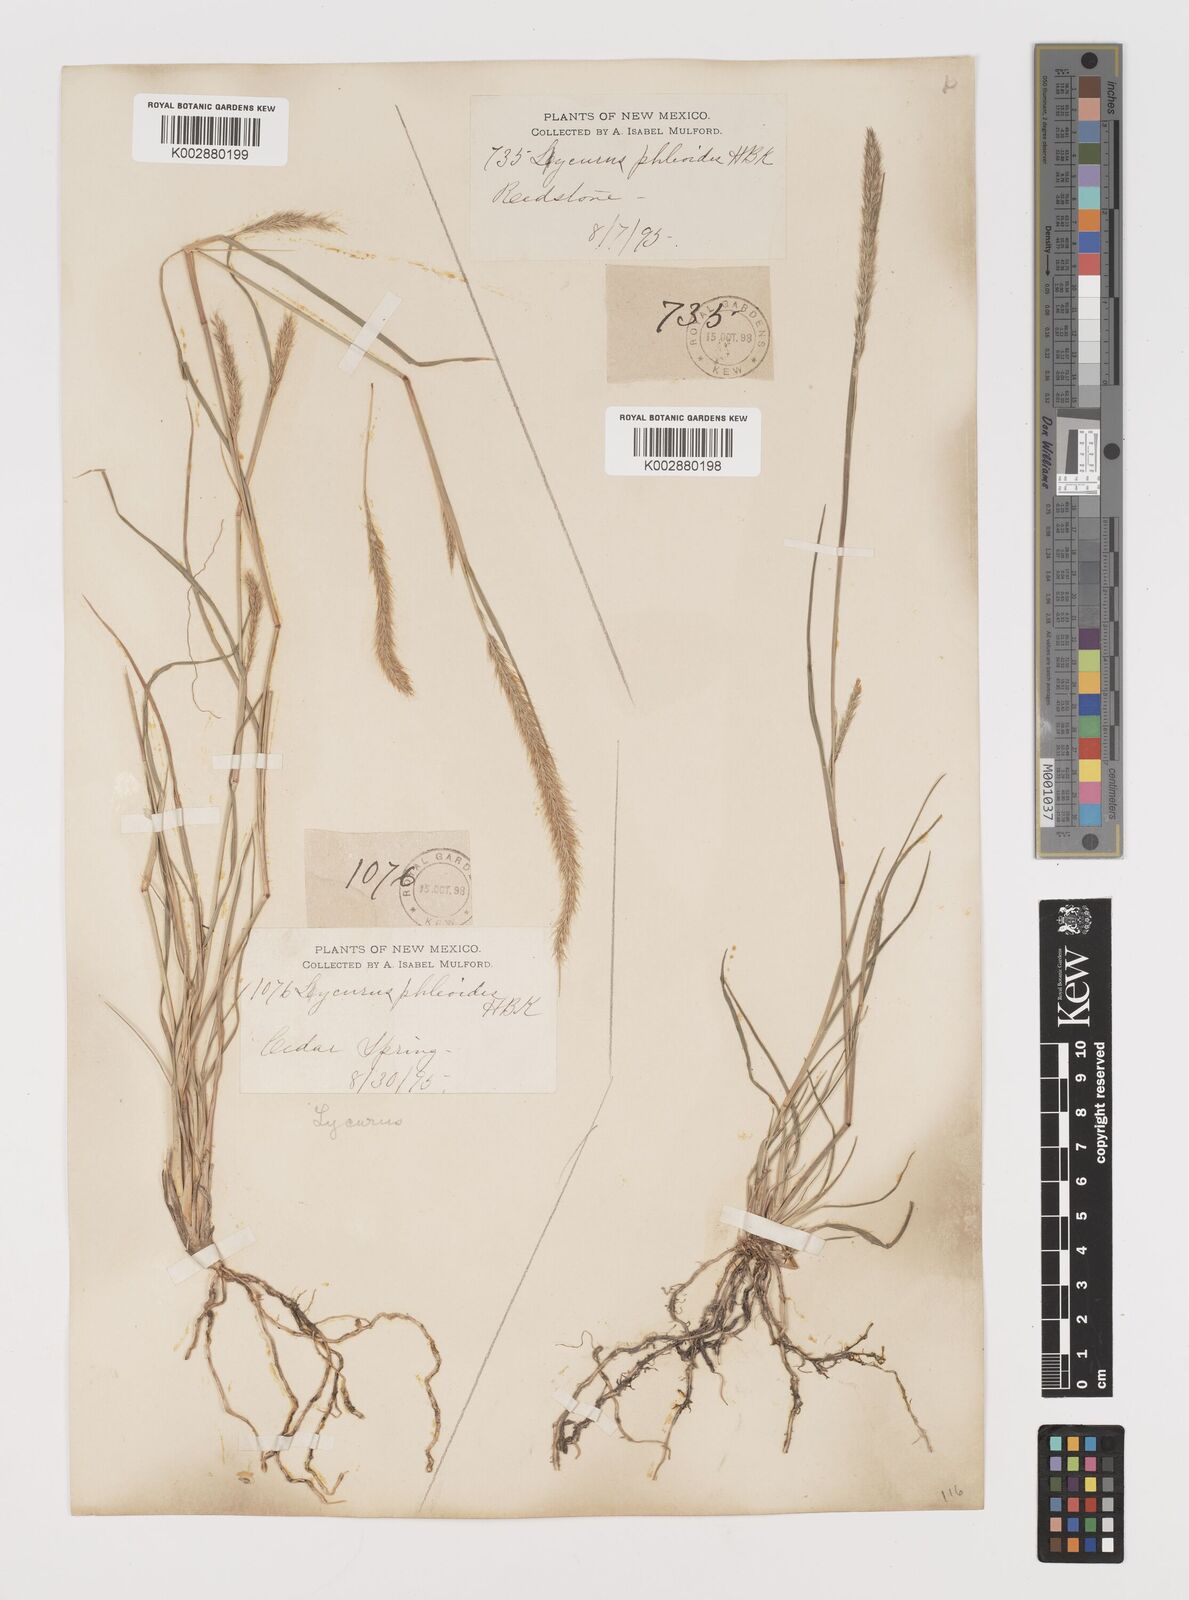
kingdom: Plantae
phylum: Tracheophyta
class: Liliopsida
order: Poales
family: Poaceae
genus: Muhlenbergia
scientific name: Muhlenbergia alopecuroides
